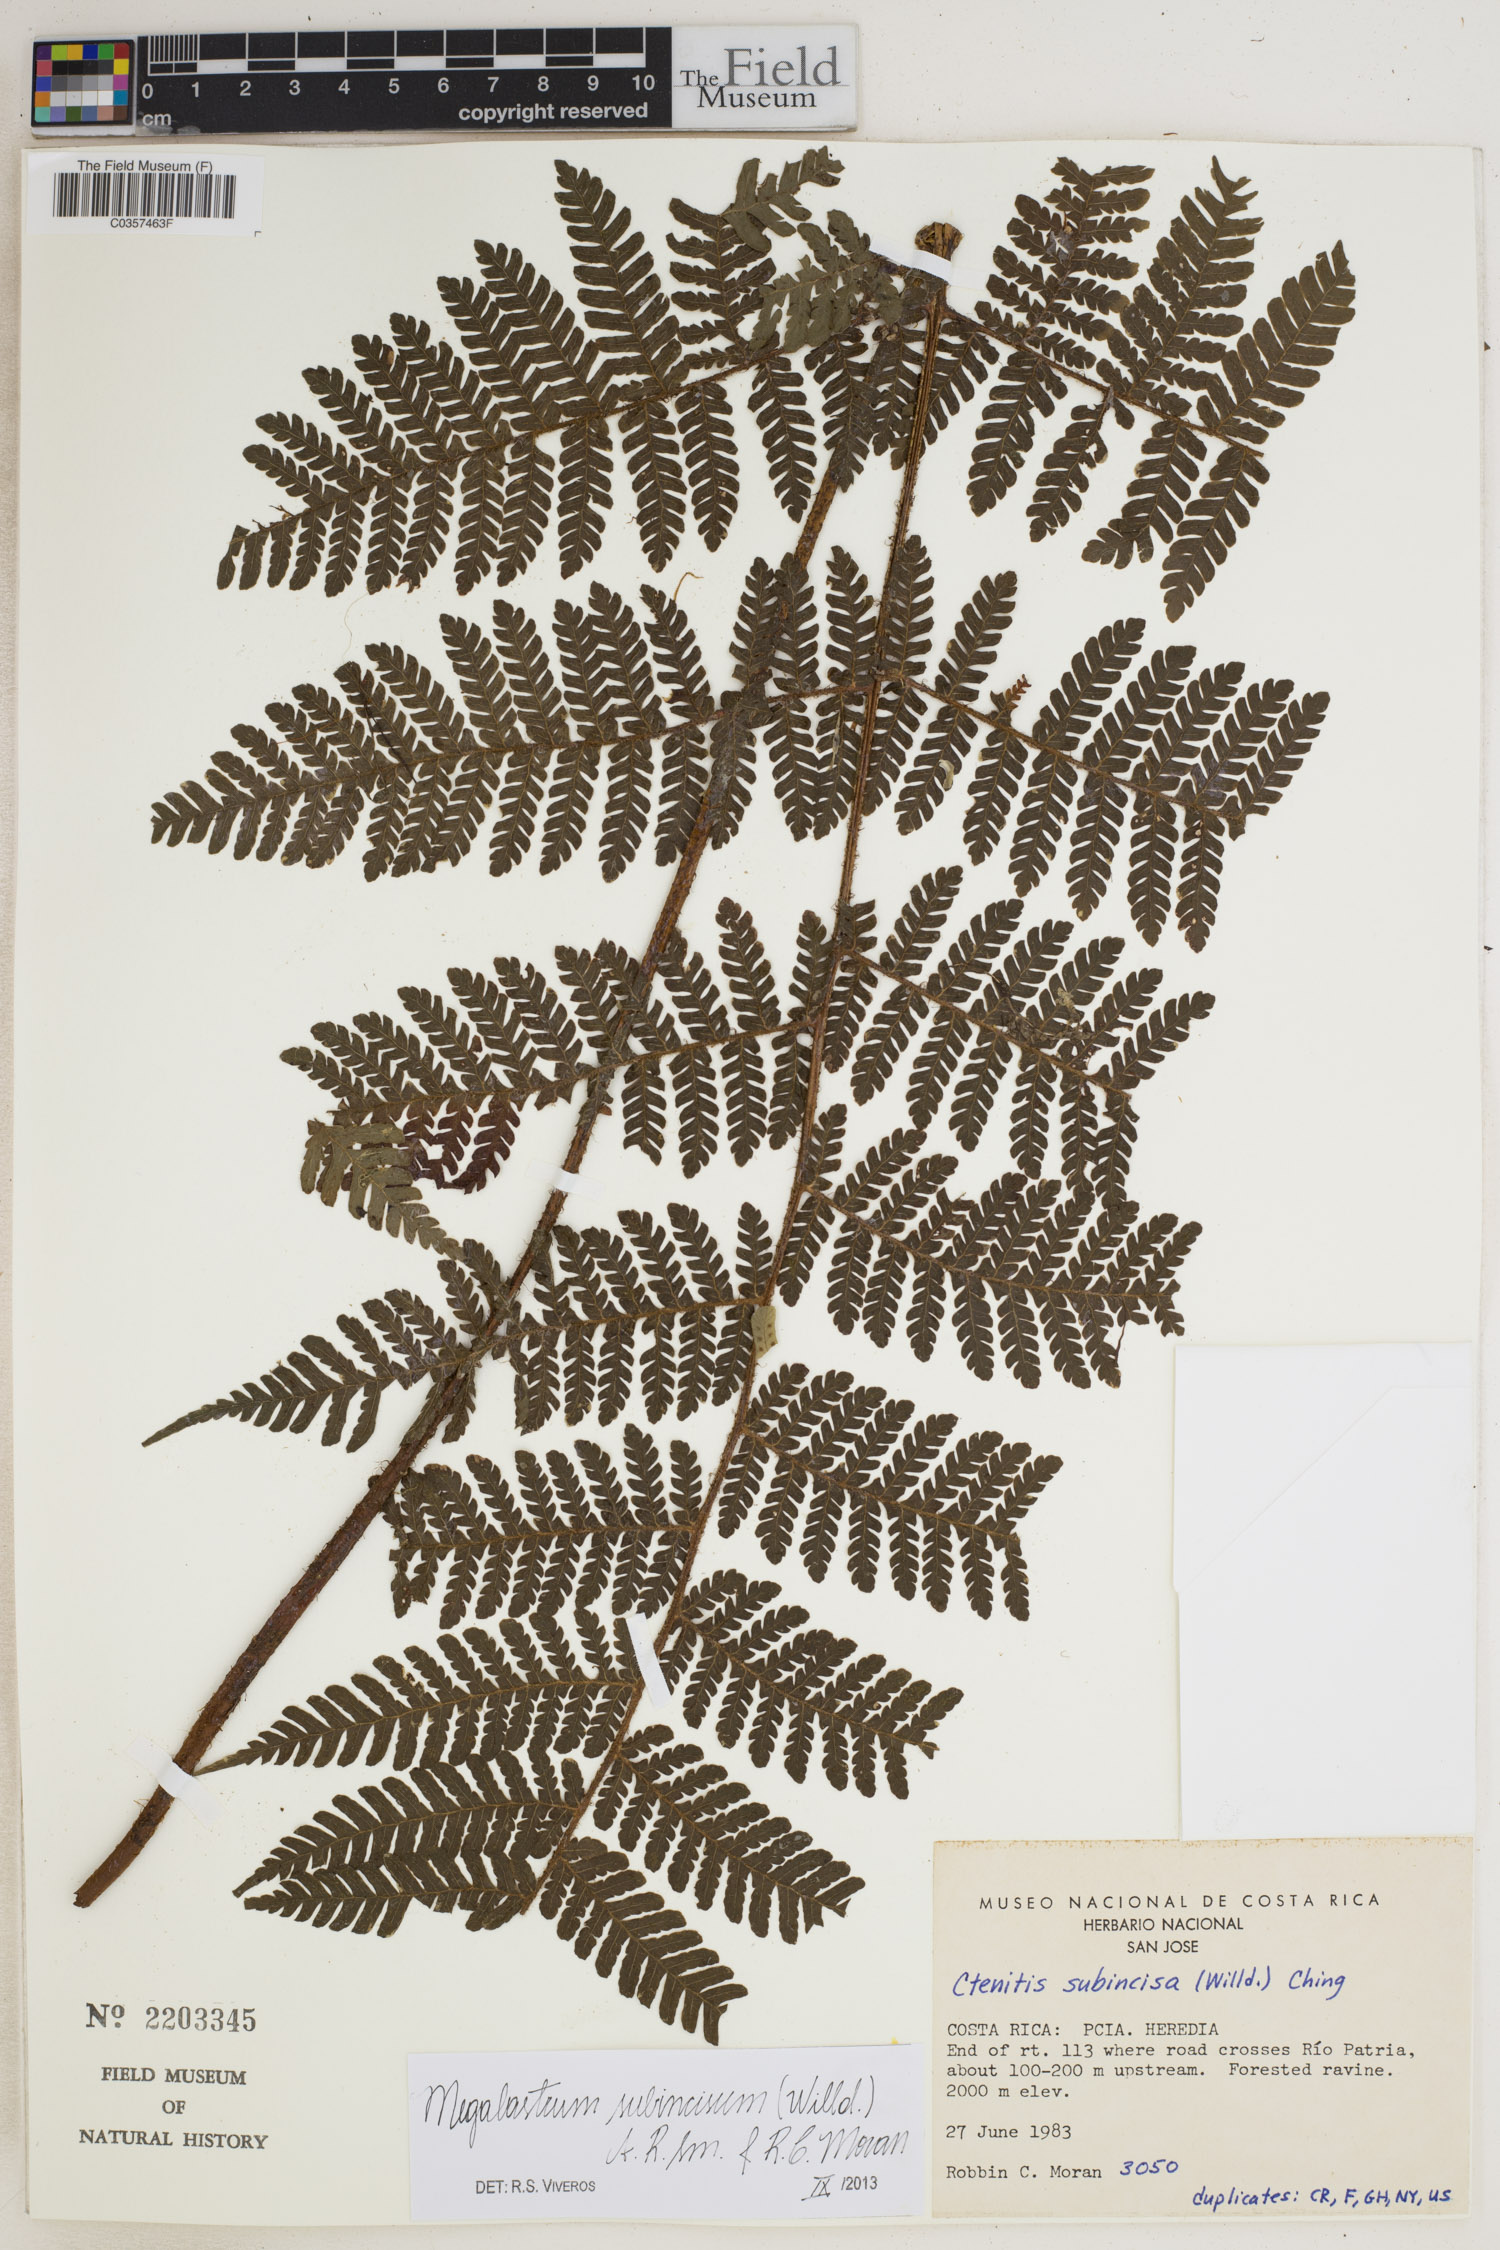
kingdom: Plantae
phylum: Tracheophyta
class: Polypodiopsida
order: Polypodiales
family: Dryopteridaceae
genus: Megalastrum
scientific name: Megalastrum subincisum
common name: Jagleaf junglefern
